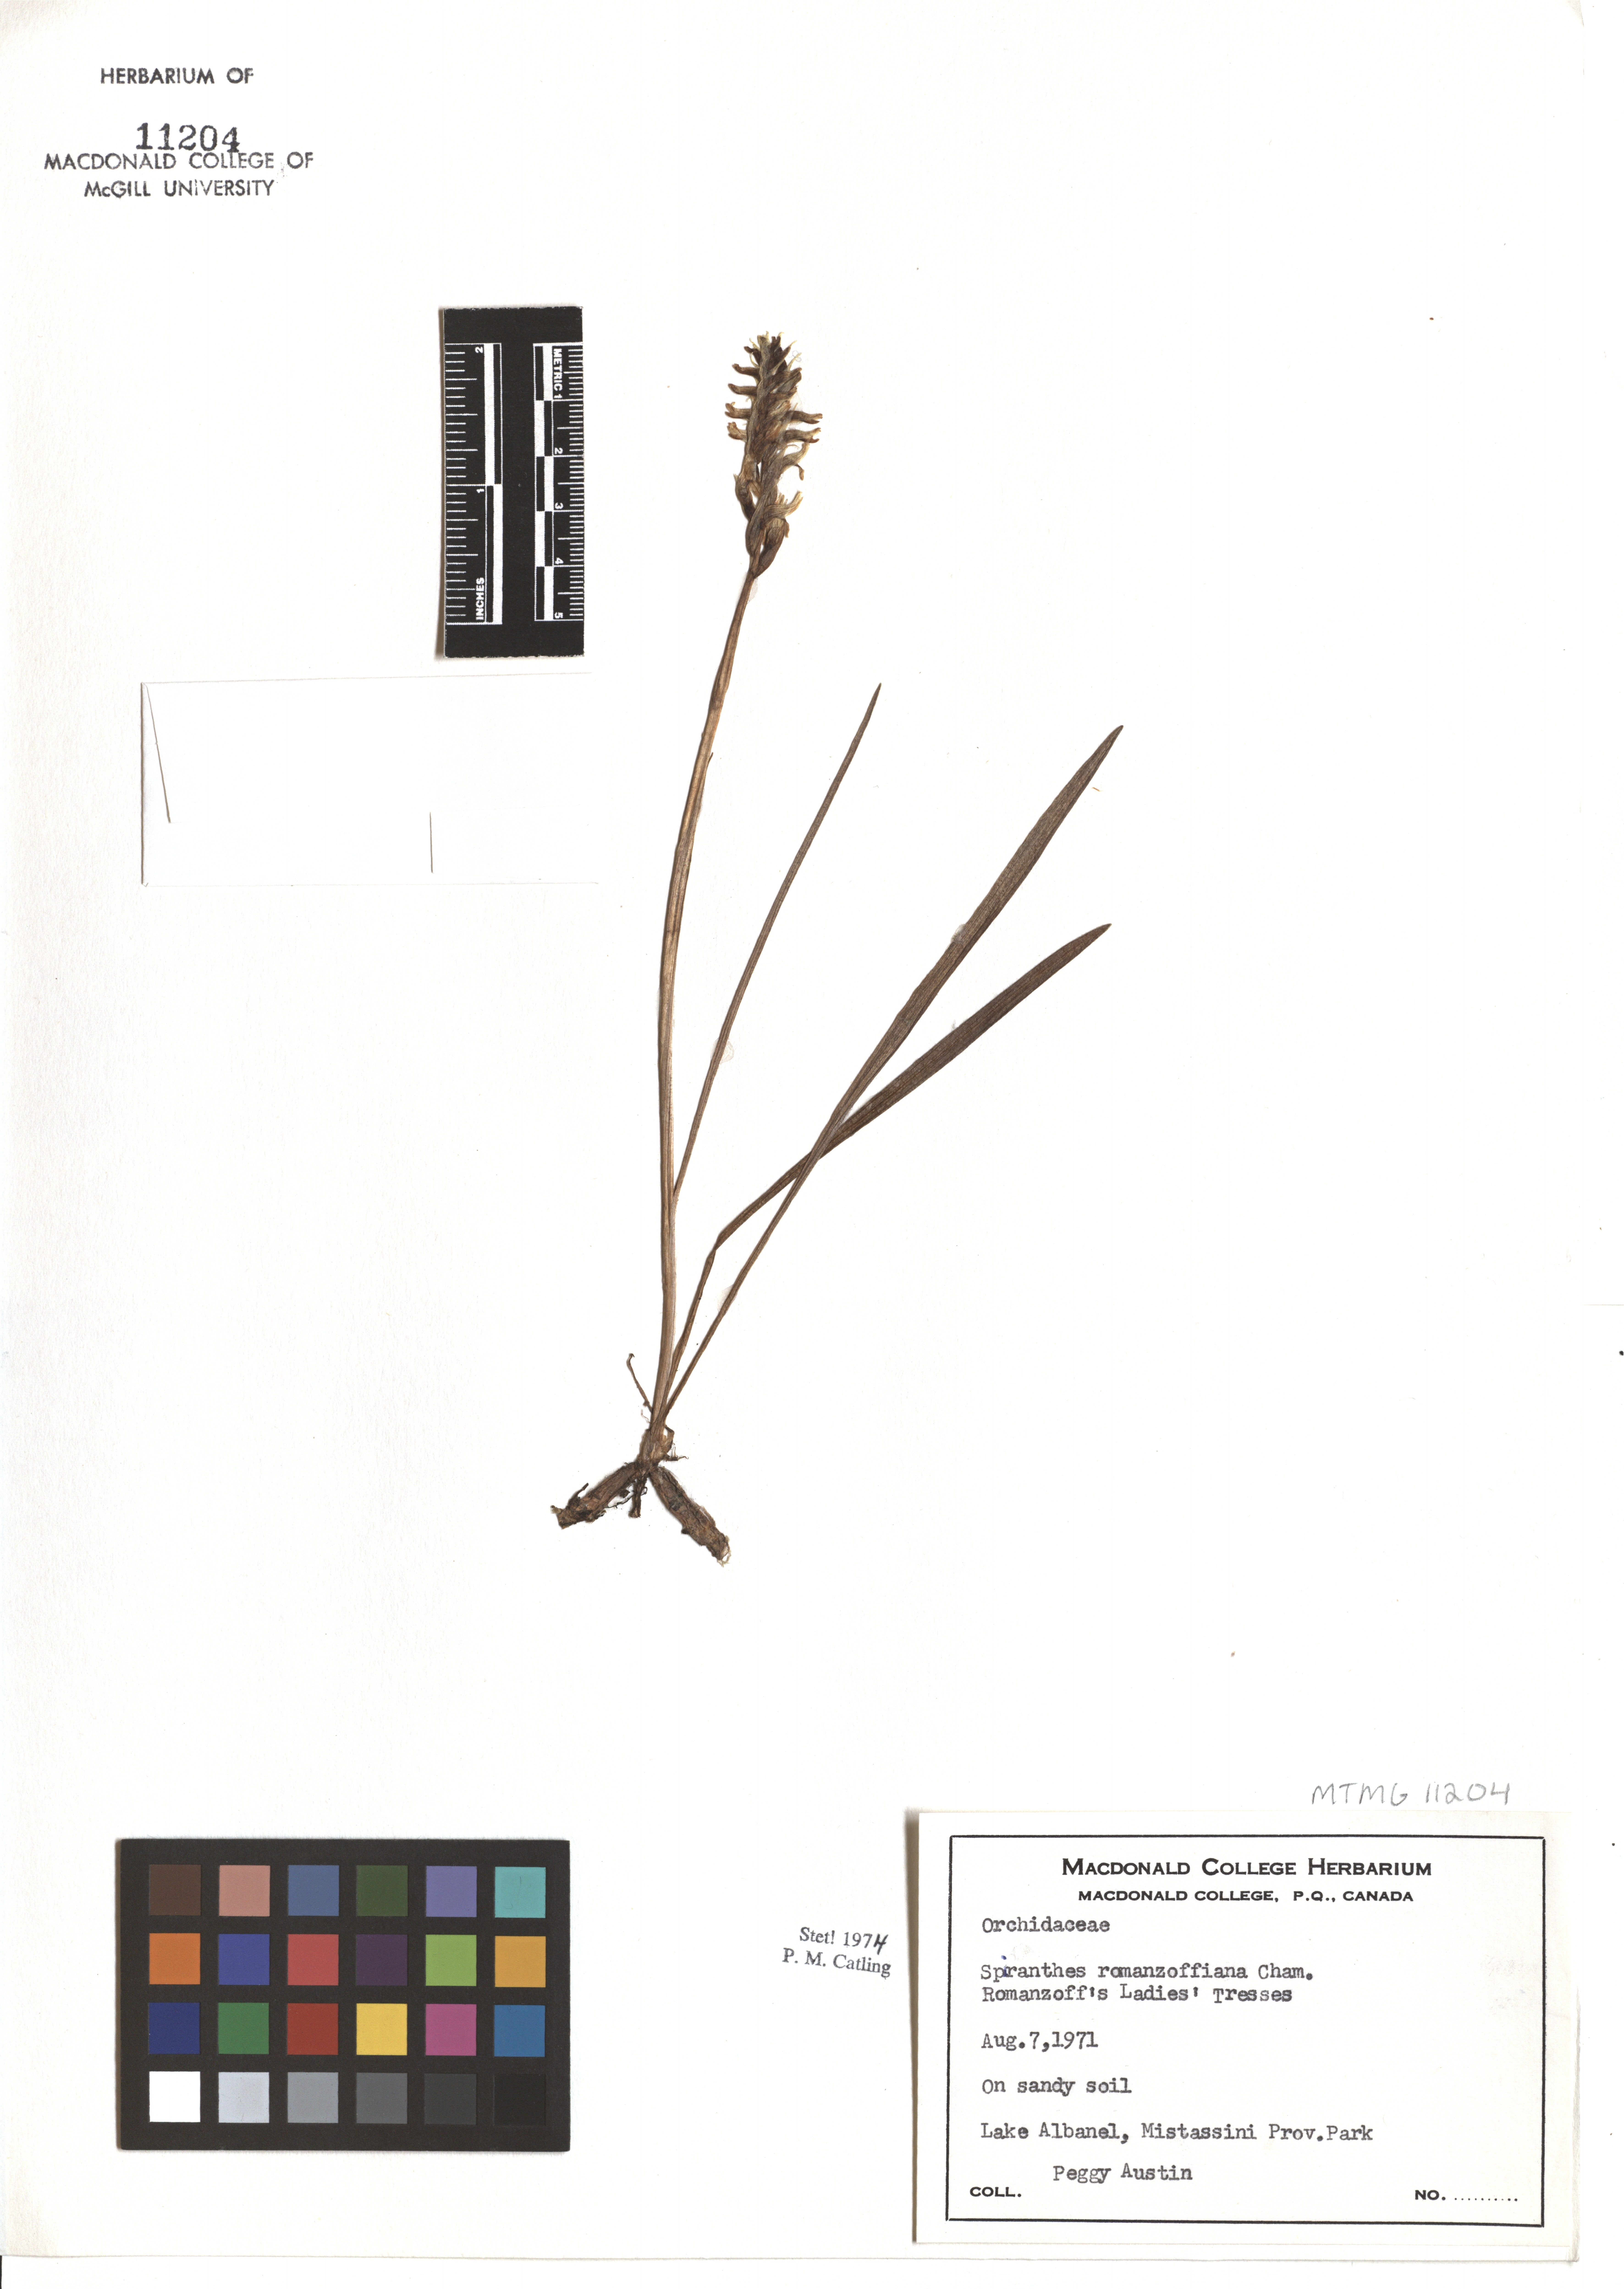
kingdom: Plantae
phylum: Tracheophyta
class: Liliopsida
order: Asparagales
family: Orchidaceae
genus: Spiranthes
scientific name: Spiranthes romanzoffiana
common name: Irish lady's-tresses
